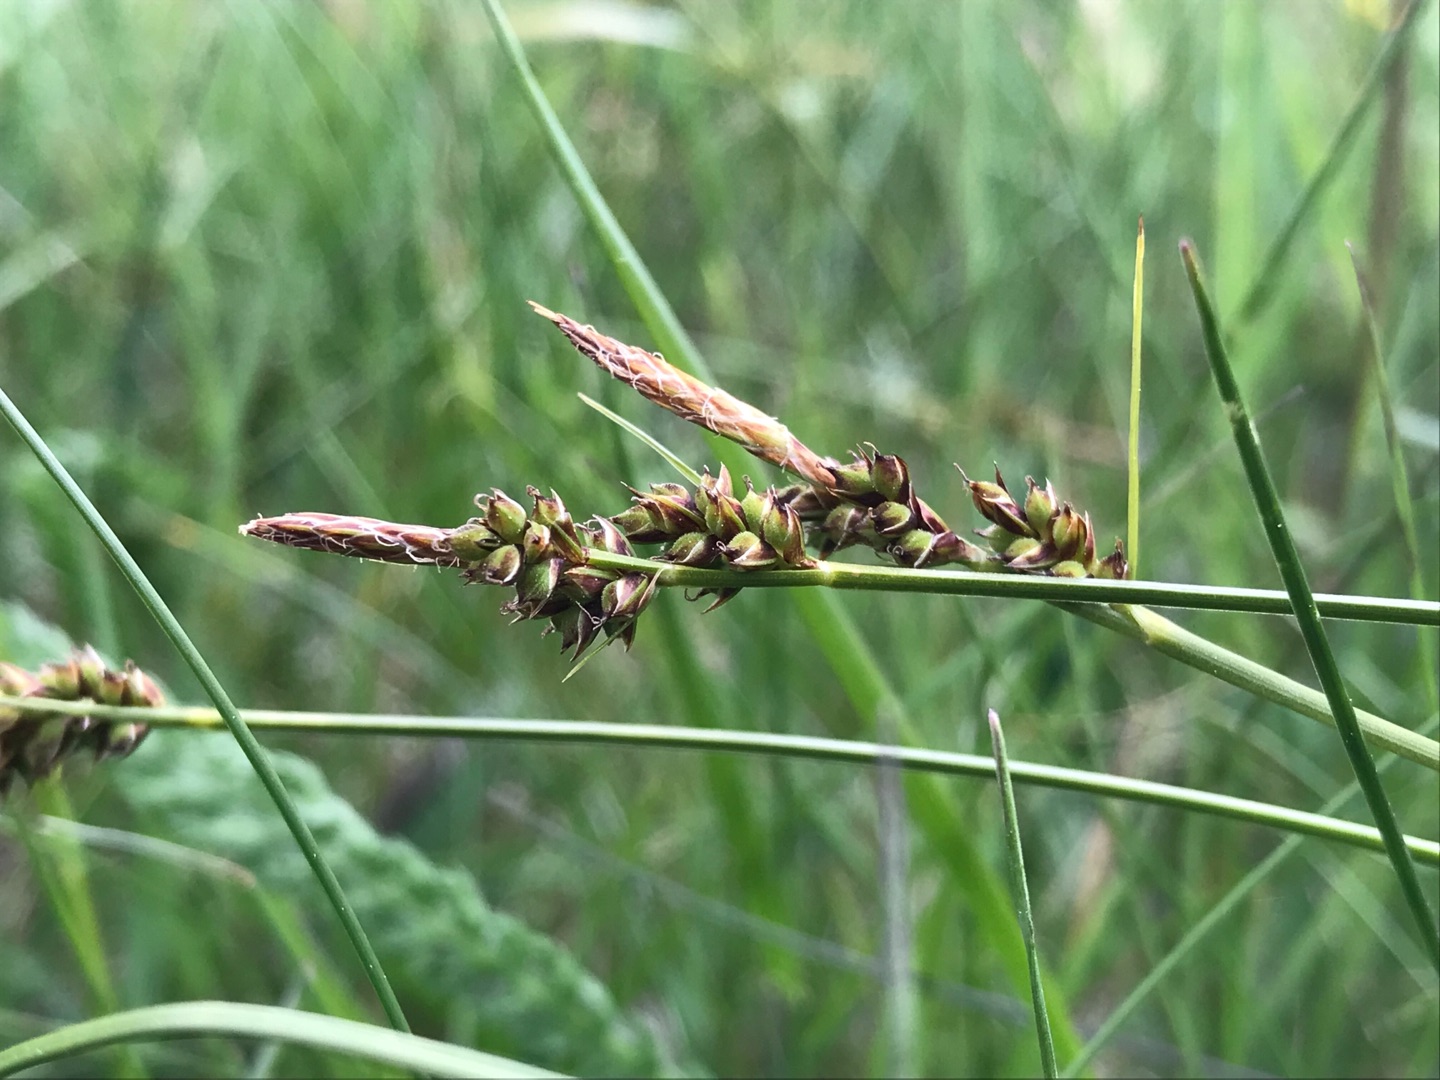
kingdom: Plantae
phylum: Tracheophyta
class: Liliopsida
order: Poales
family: Cyperaceae
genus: Carex
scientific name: Carex pilulifera
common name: Pille-star
